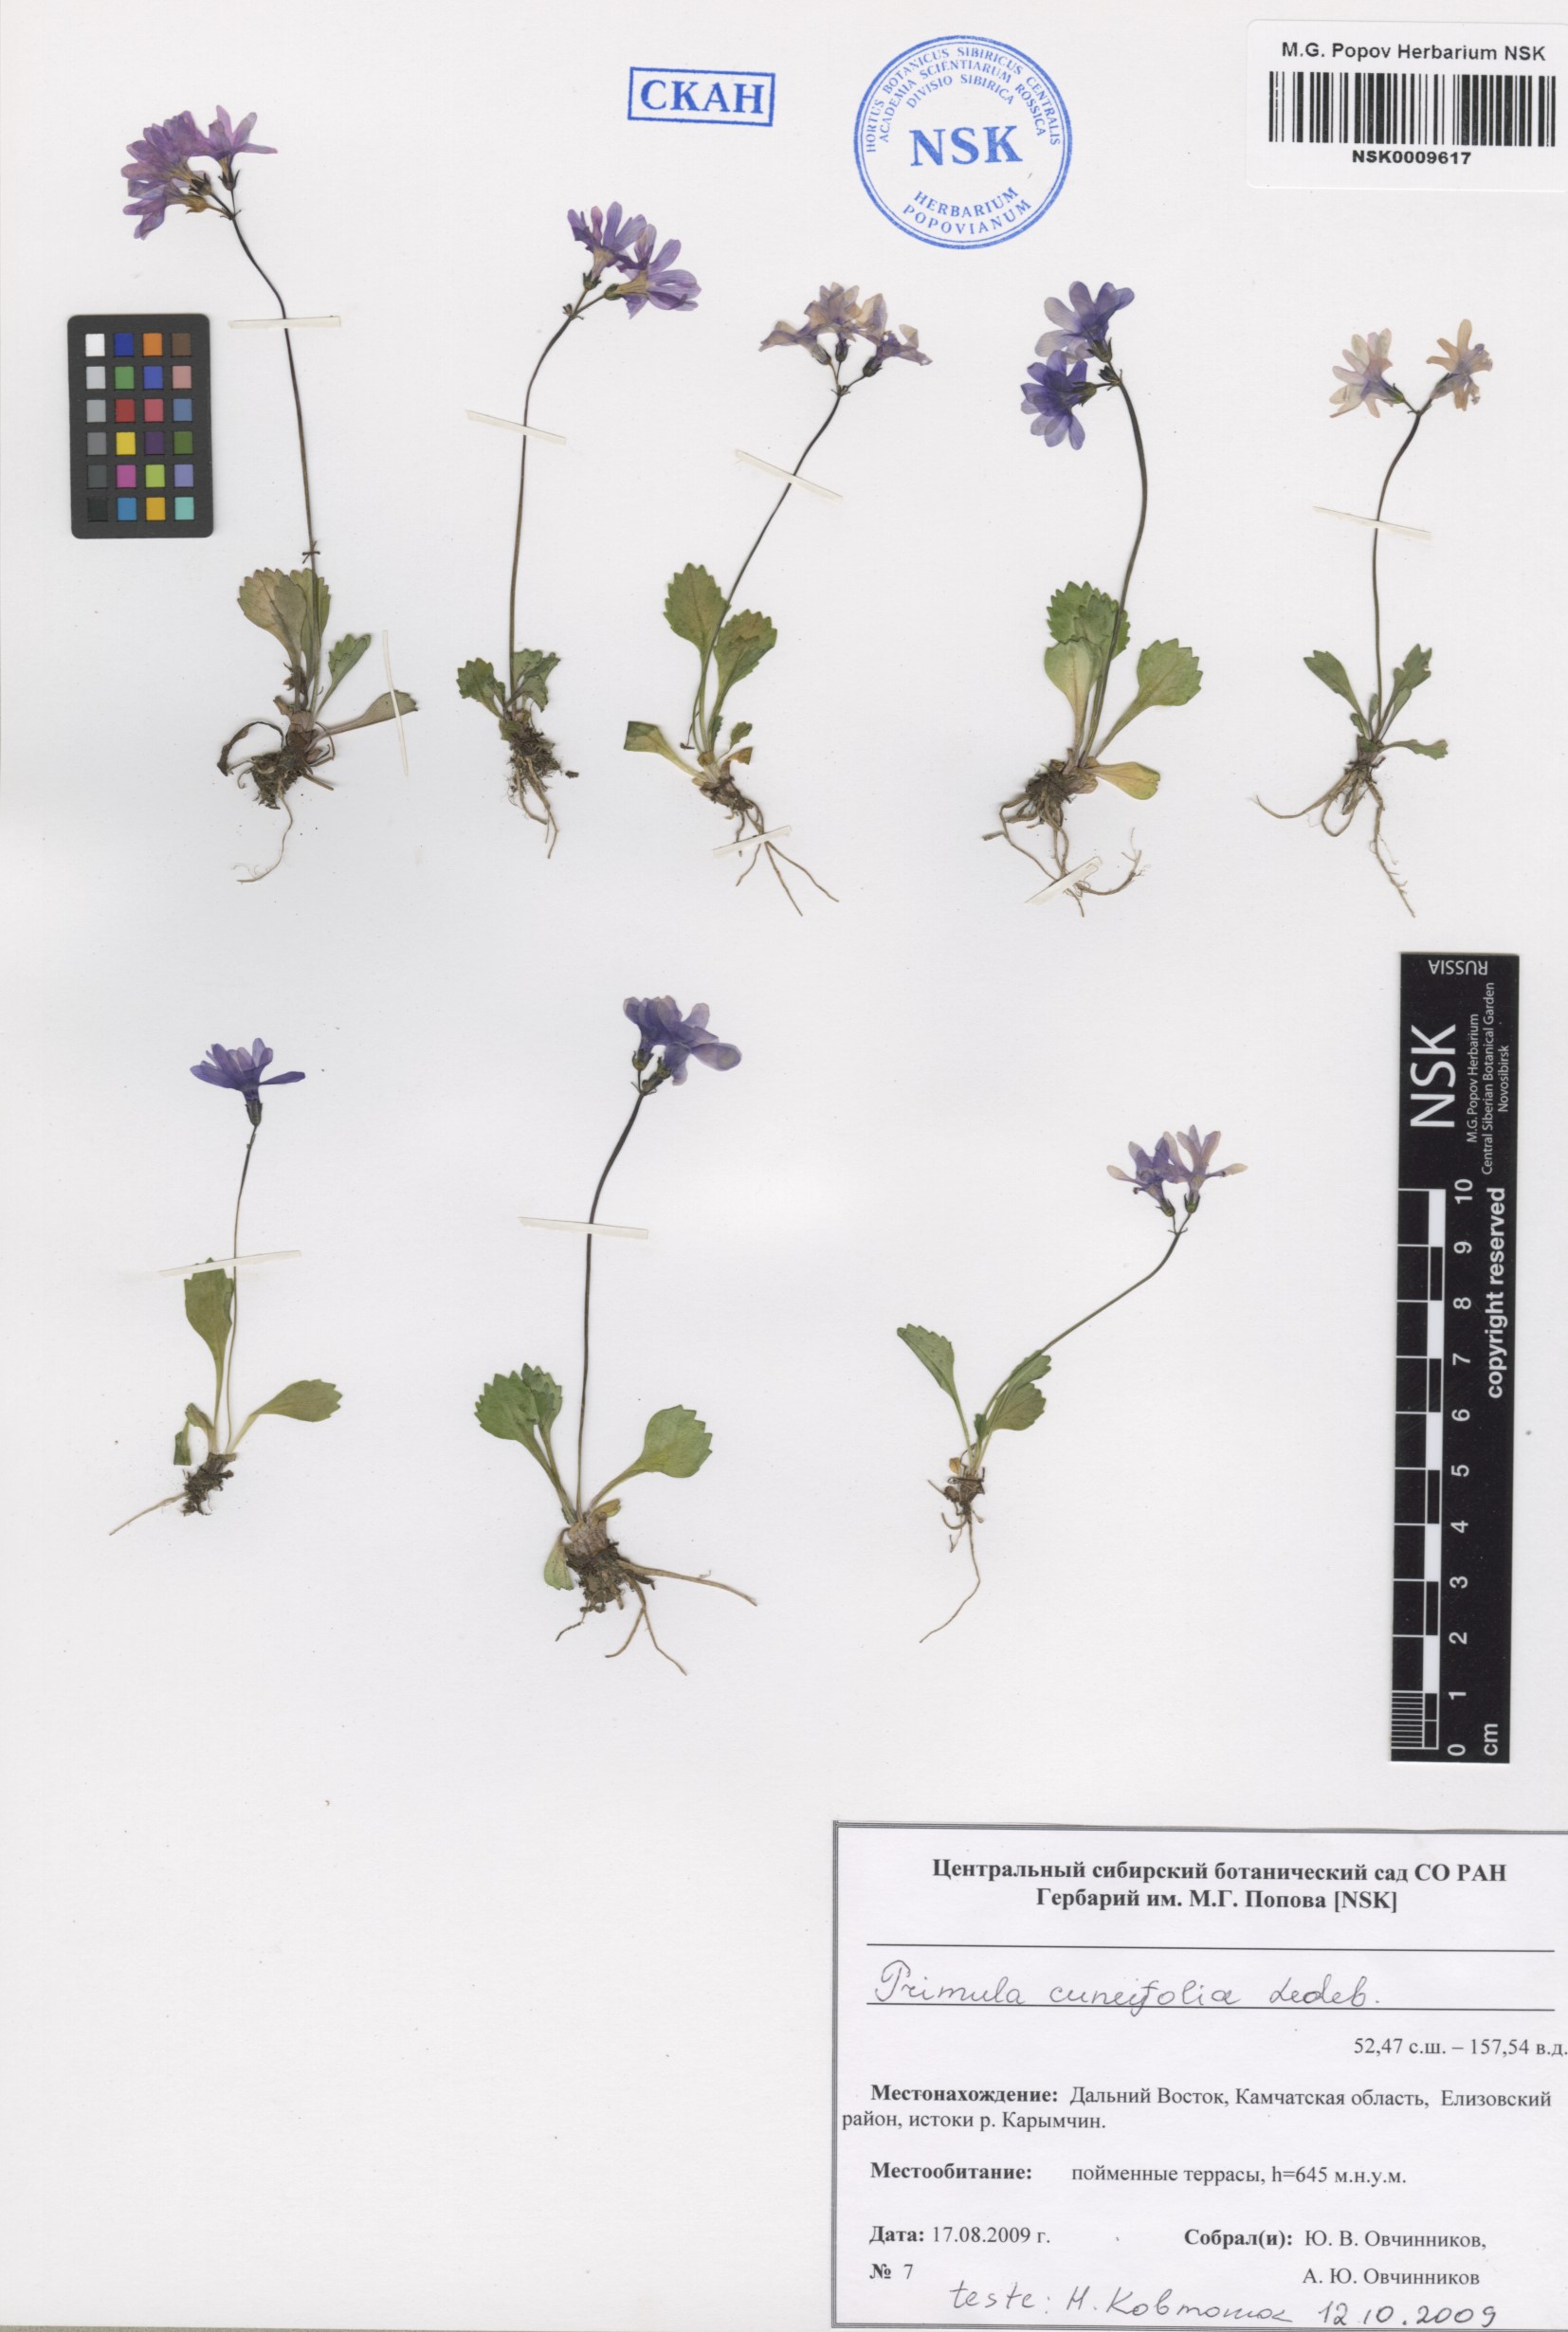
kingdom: Plantae
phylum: Tracheophyta
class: Magnoliopsida
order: Ericales
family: Primulaceae
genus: Primula
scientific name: Primula cuneifolia
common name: Wedge-leaved primrose
